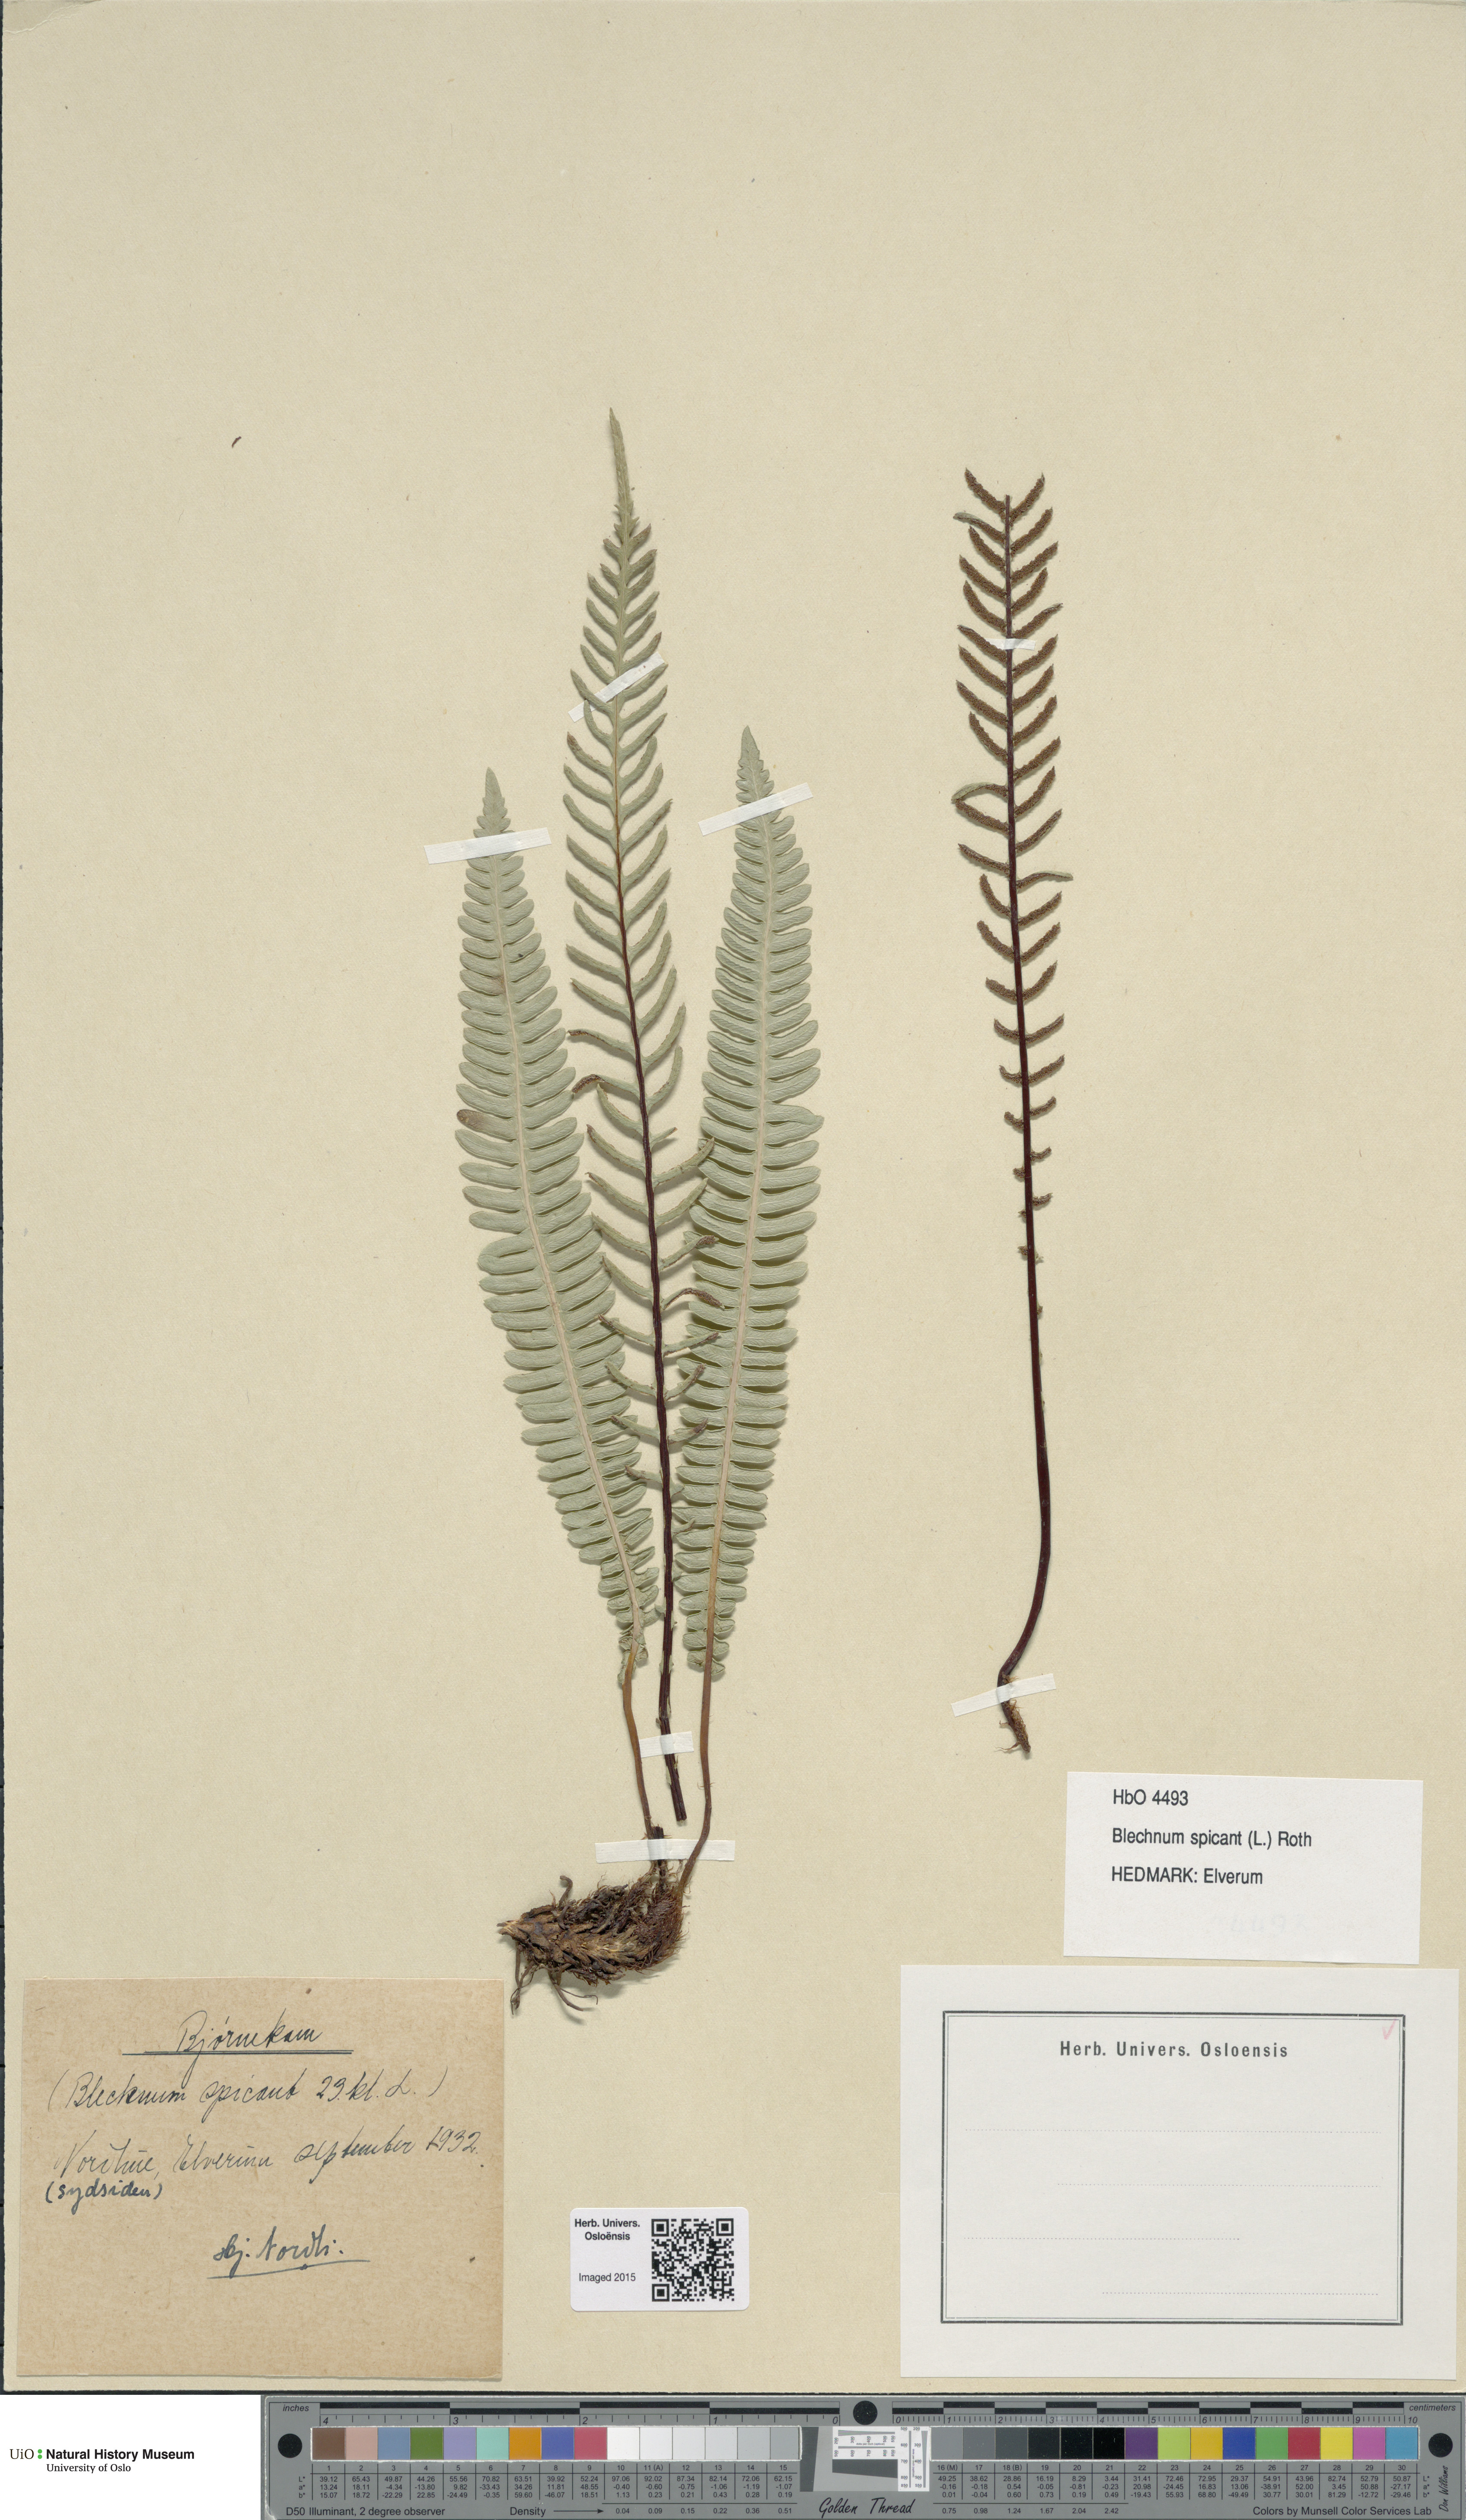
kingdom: Plantae
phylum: Tracheophyta
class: Polypodiopsida
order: Polypodiales
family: Blechnaceae
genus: Struthiopteris
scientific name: Struthiopteris spicant
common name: Deer fern
